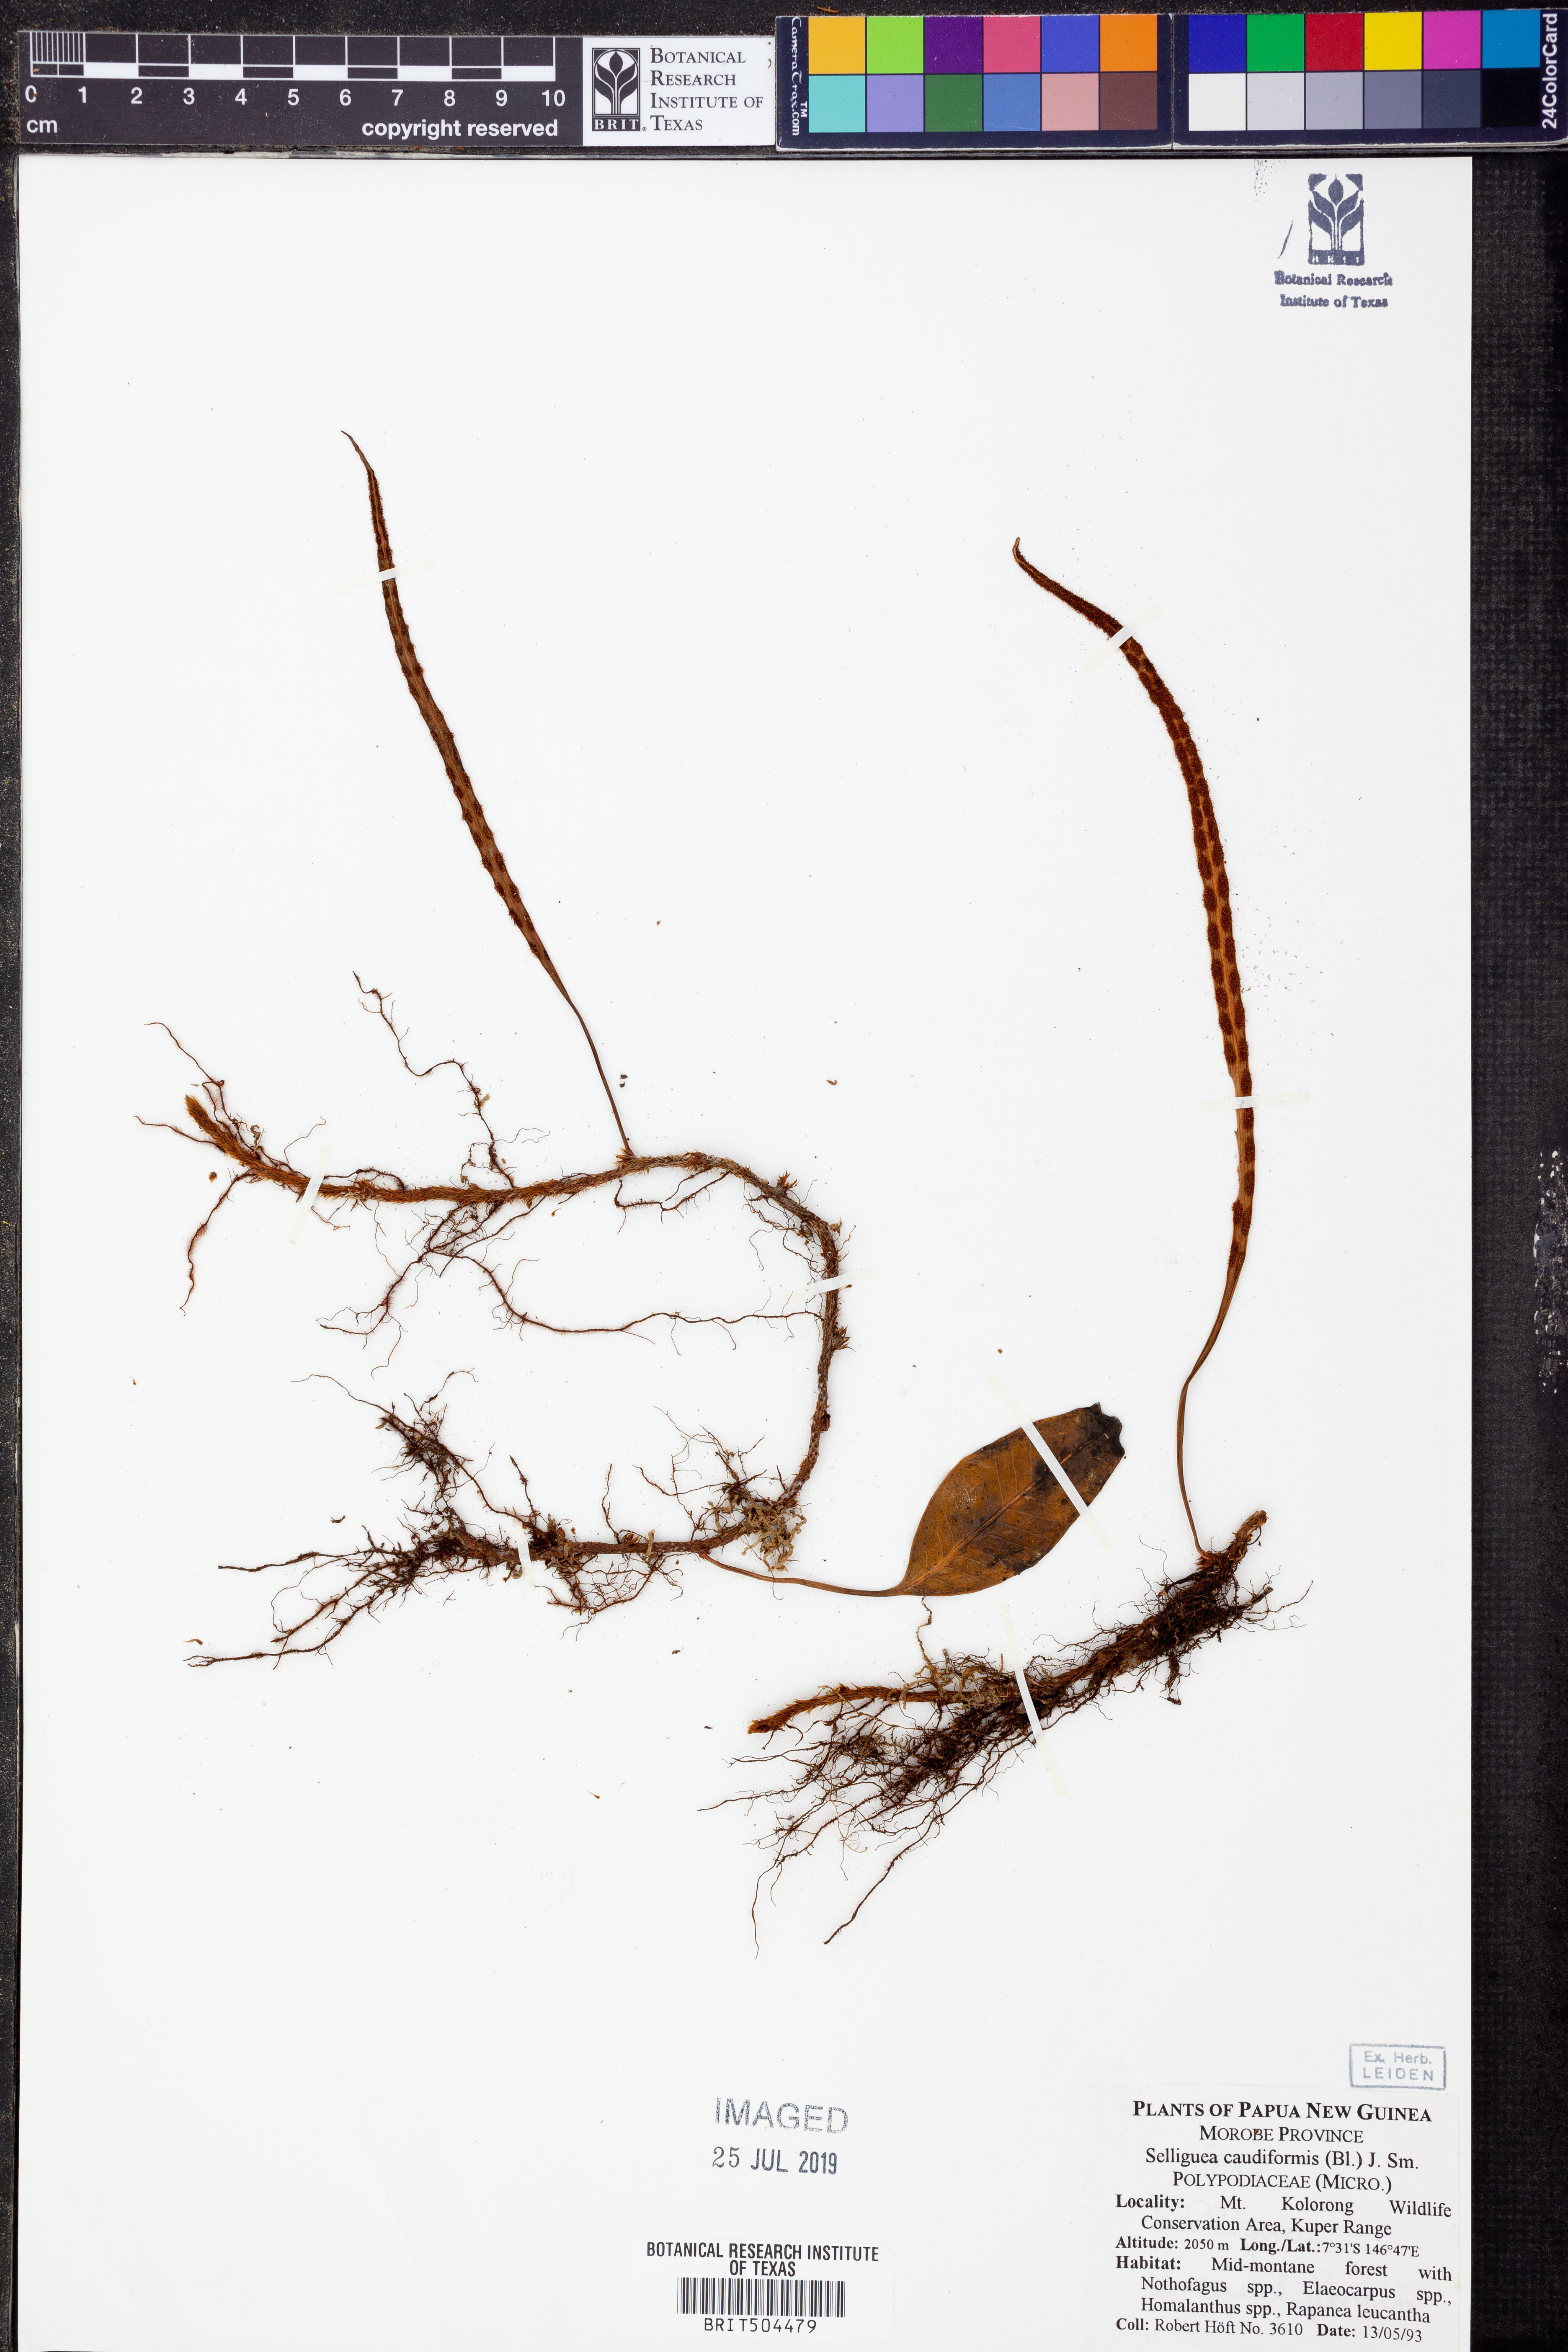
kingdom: Plantae
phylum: Tracheophyta
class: Polypodiopsida
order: Polypodiales
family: Polypodiaceae
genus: Selliguea
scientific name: Selliguea caudiformis
